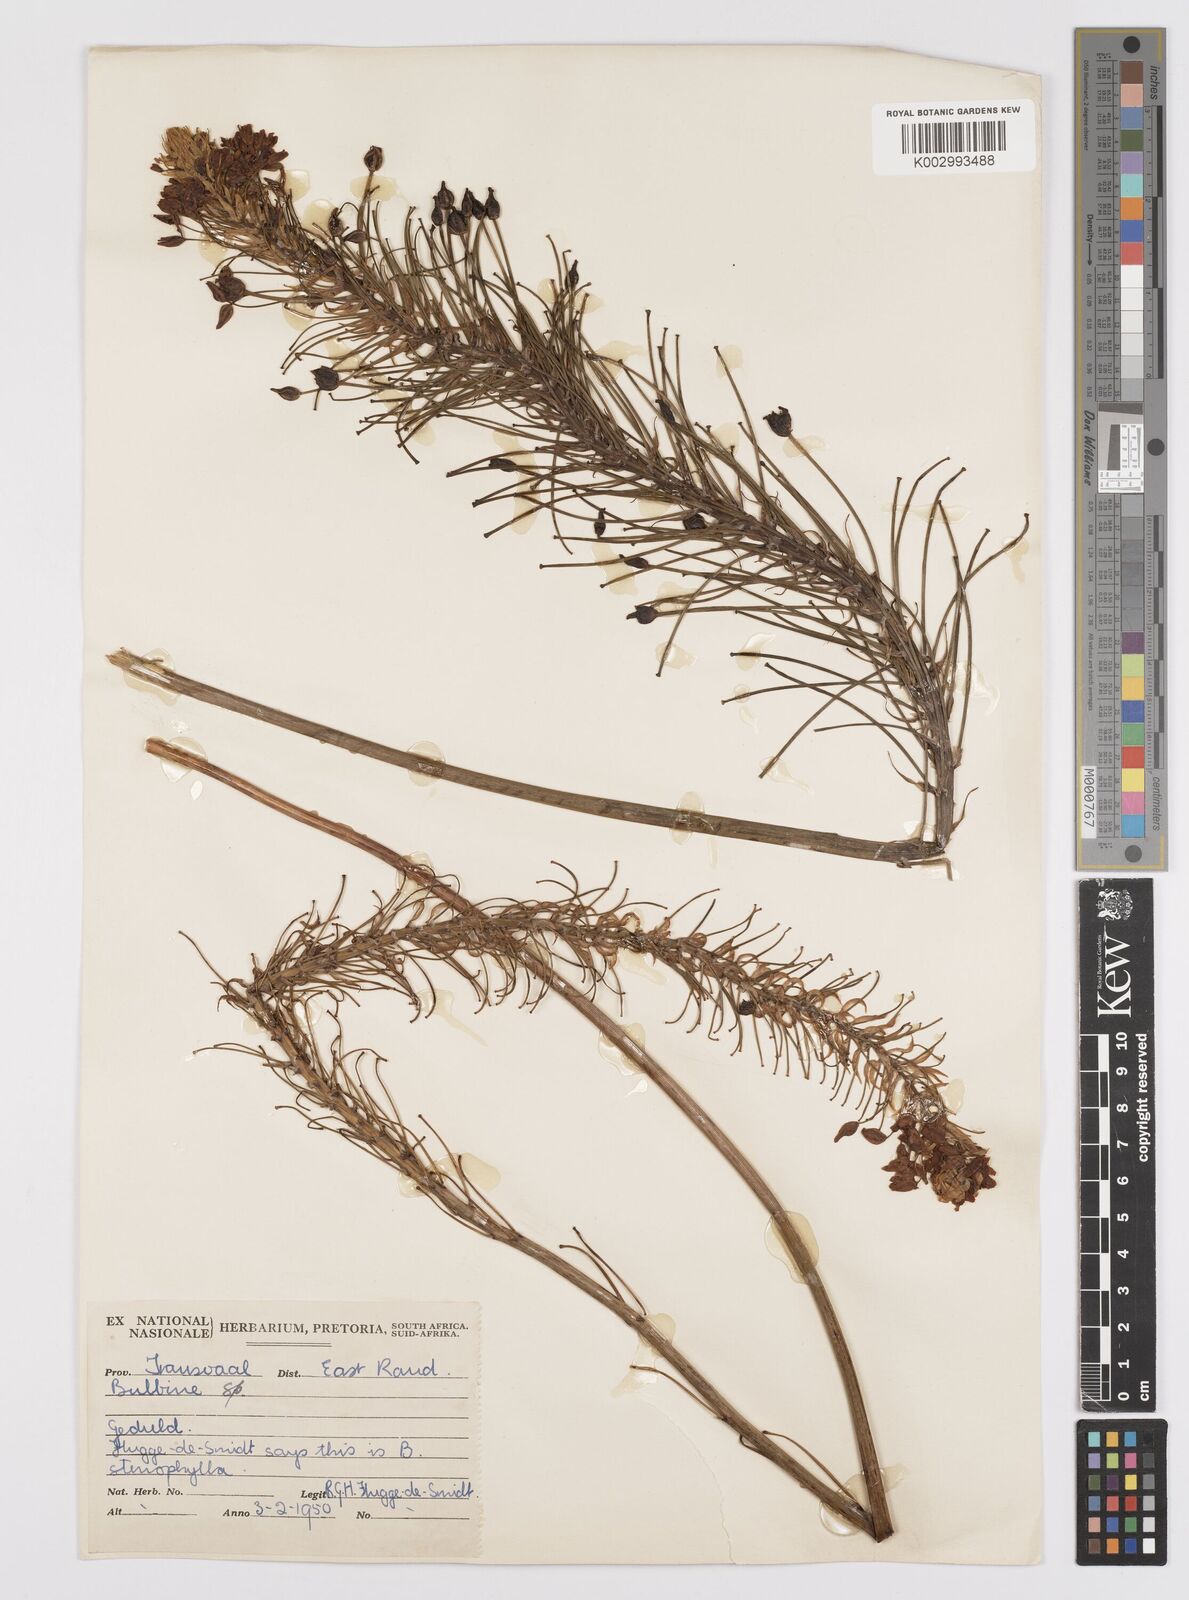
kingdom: Plantae
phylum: Tracheophyta
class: Liliopsida
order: Asparagales
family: Asphodelaceae
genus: Bulbine
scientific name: Bulbine abyssinica
